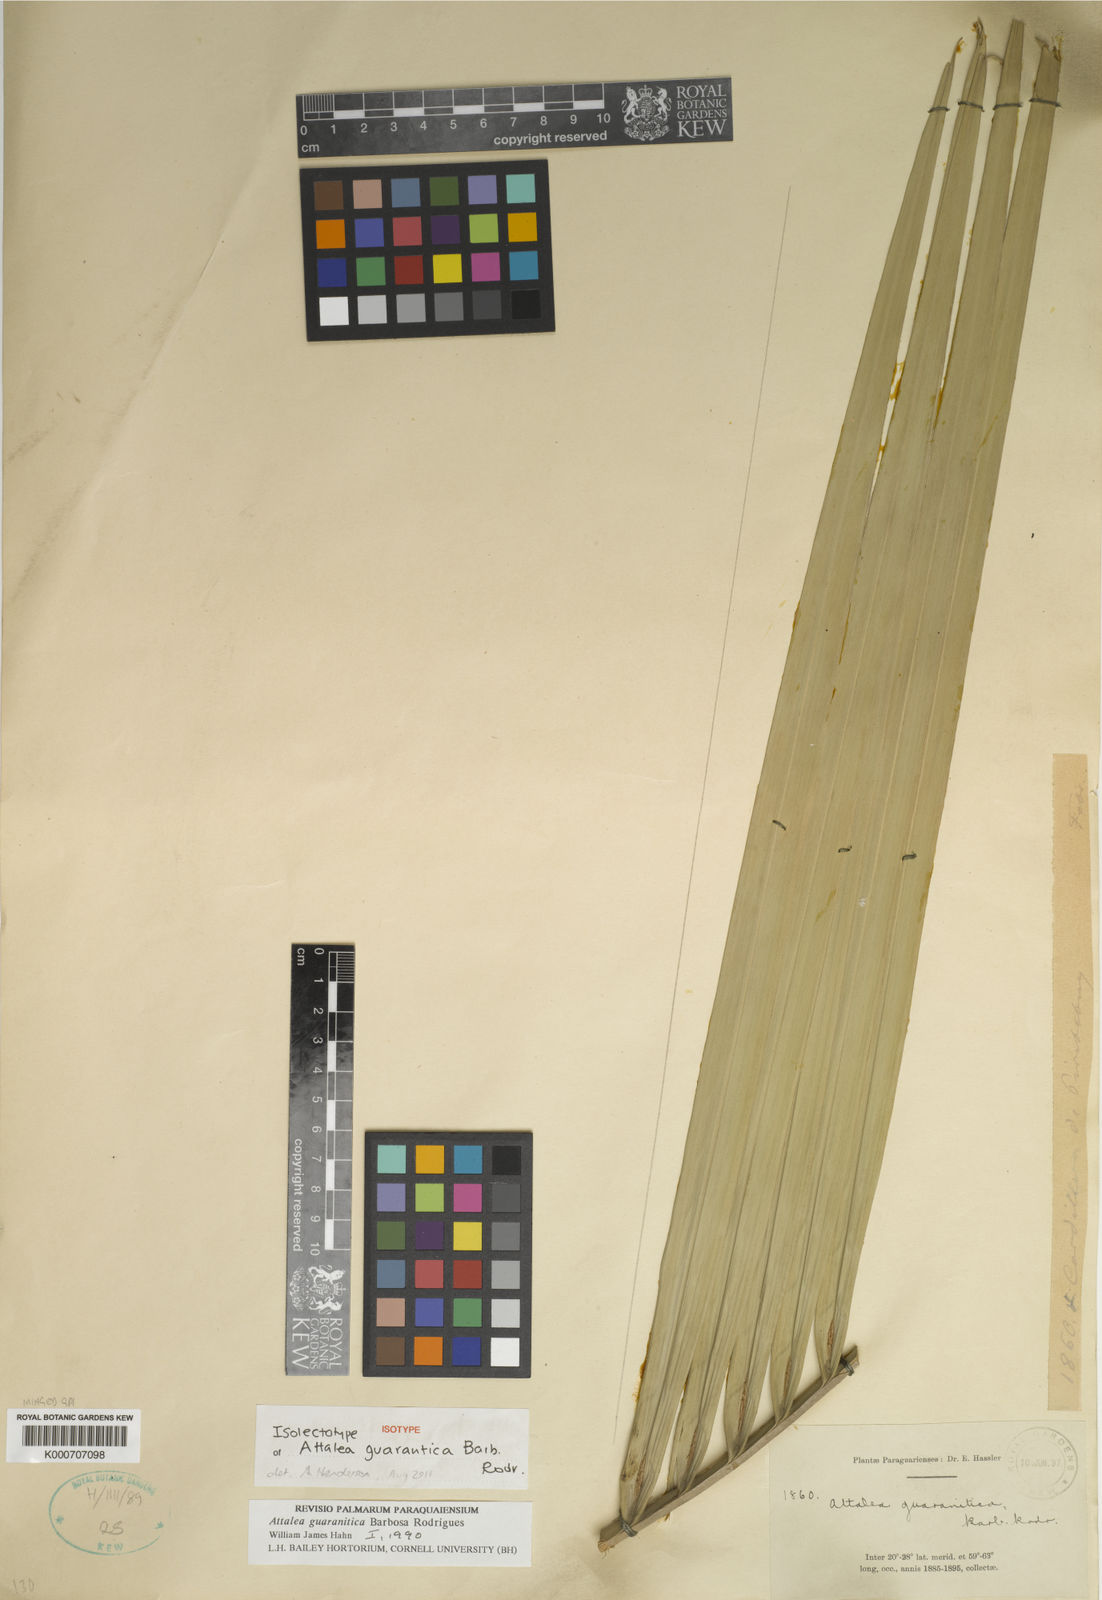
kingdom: Plantae
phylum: Tracheophyta
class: Liliopsida
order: Arecales
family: Arecaceae
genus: Attalea
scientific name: Attalea geraensis
